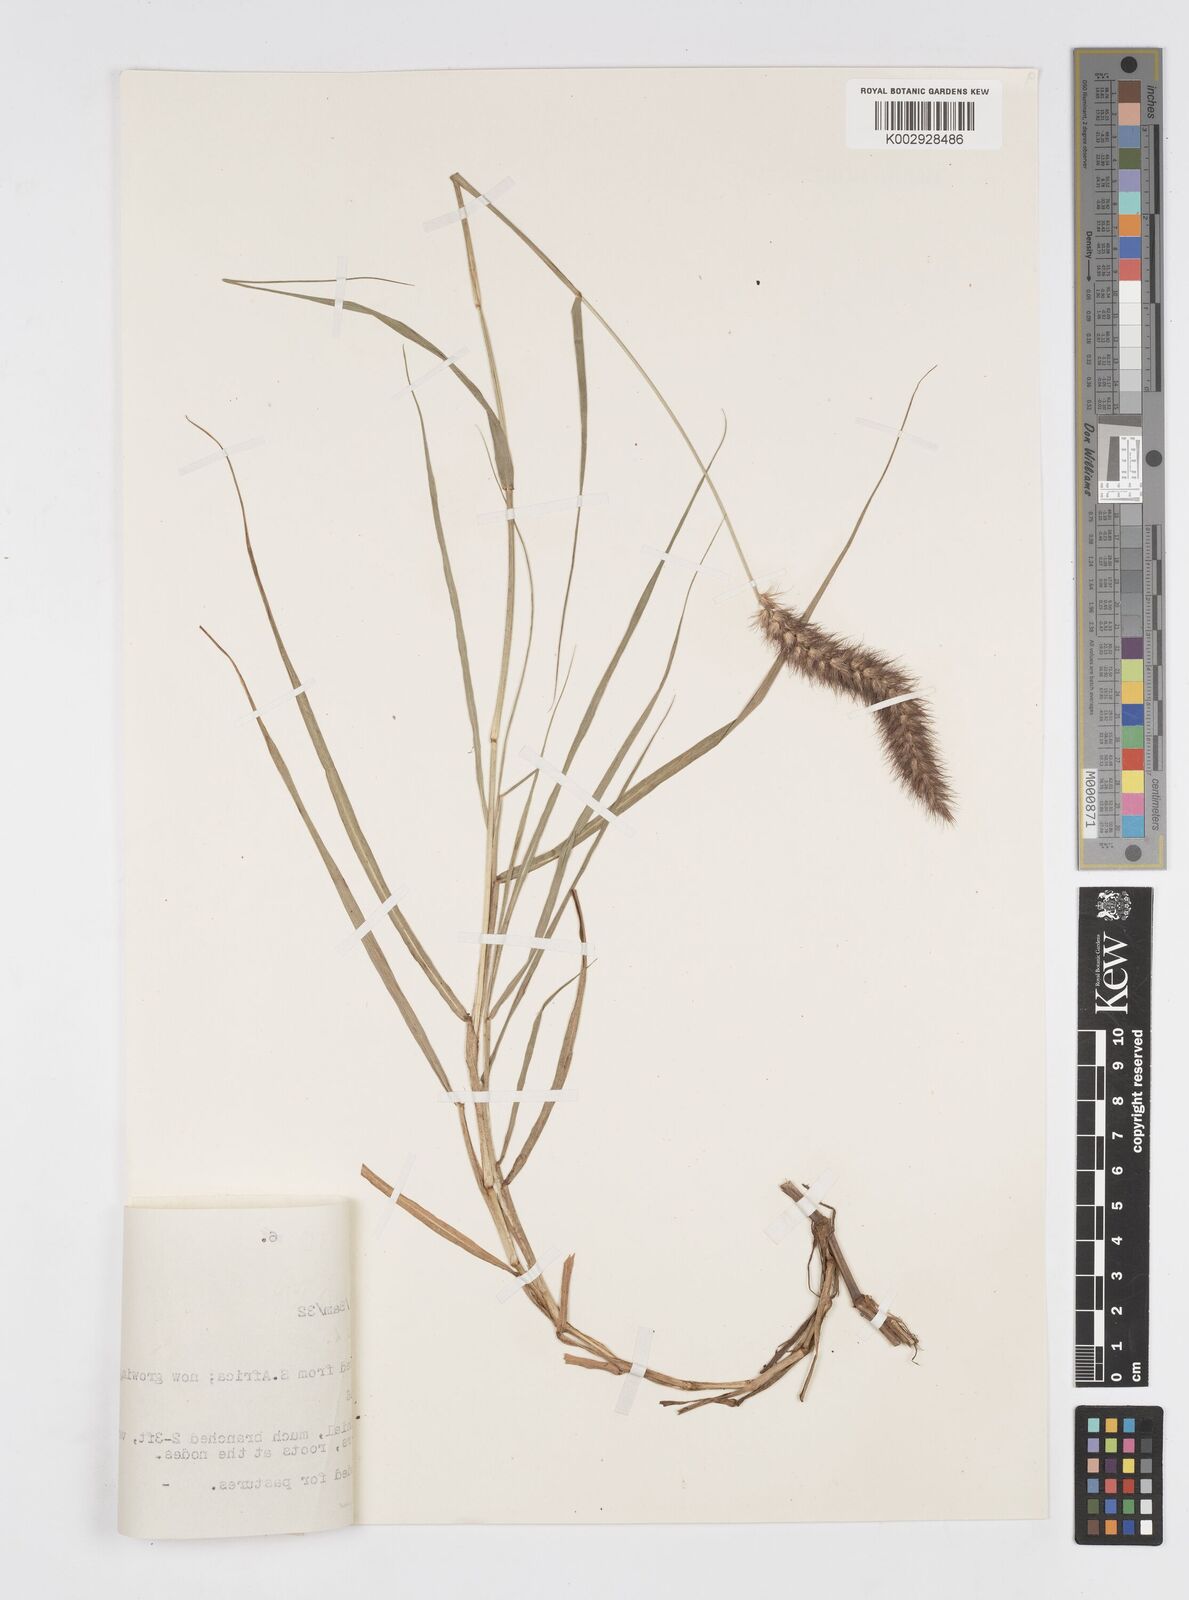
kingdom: Plantae
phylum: Tracheophyta
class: Liliopsida
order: Poales
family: Poaceae
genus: Cenchrus
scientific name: Cenchrus ciliaris
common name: Buffelgrass
